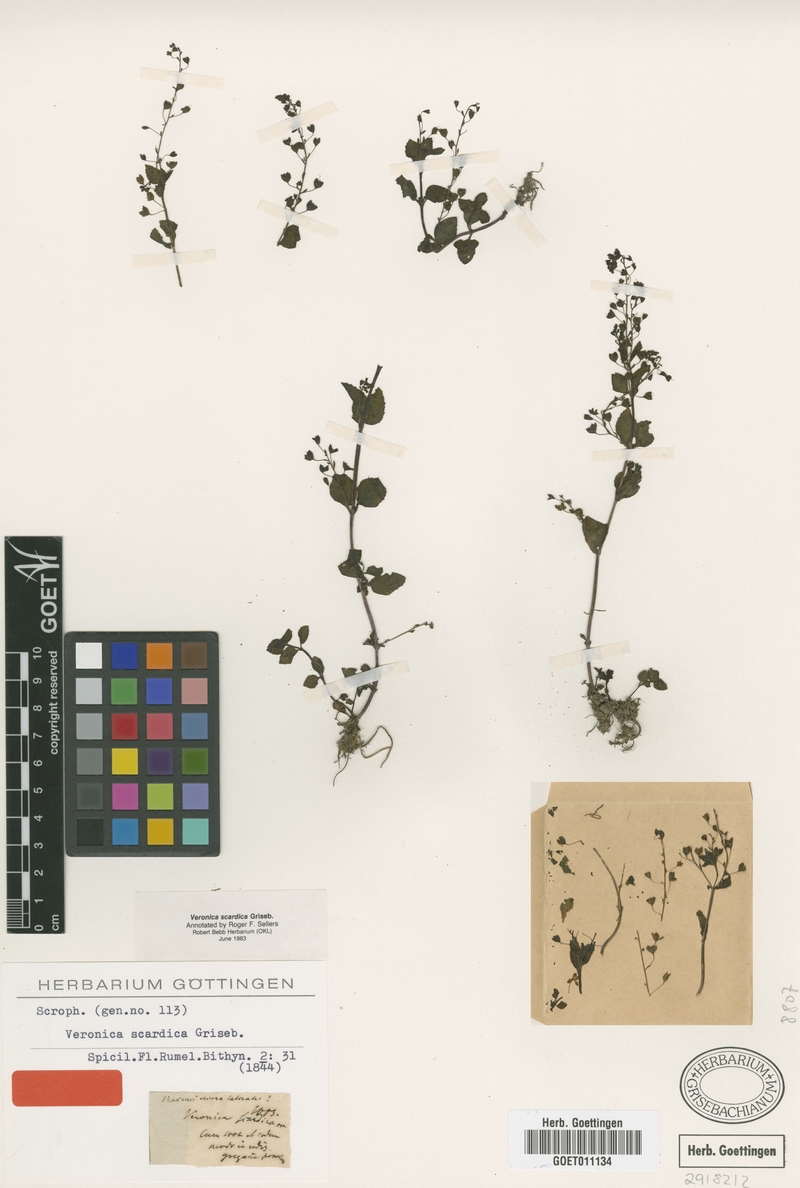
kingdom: Plantae
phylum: Tracheophyta
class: Magnoliopsida
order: Lamiales
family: Plantaginaceae
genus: Veronica
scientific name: Veronica scardica
